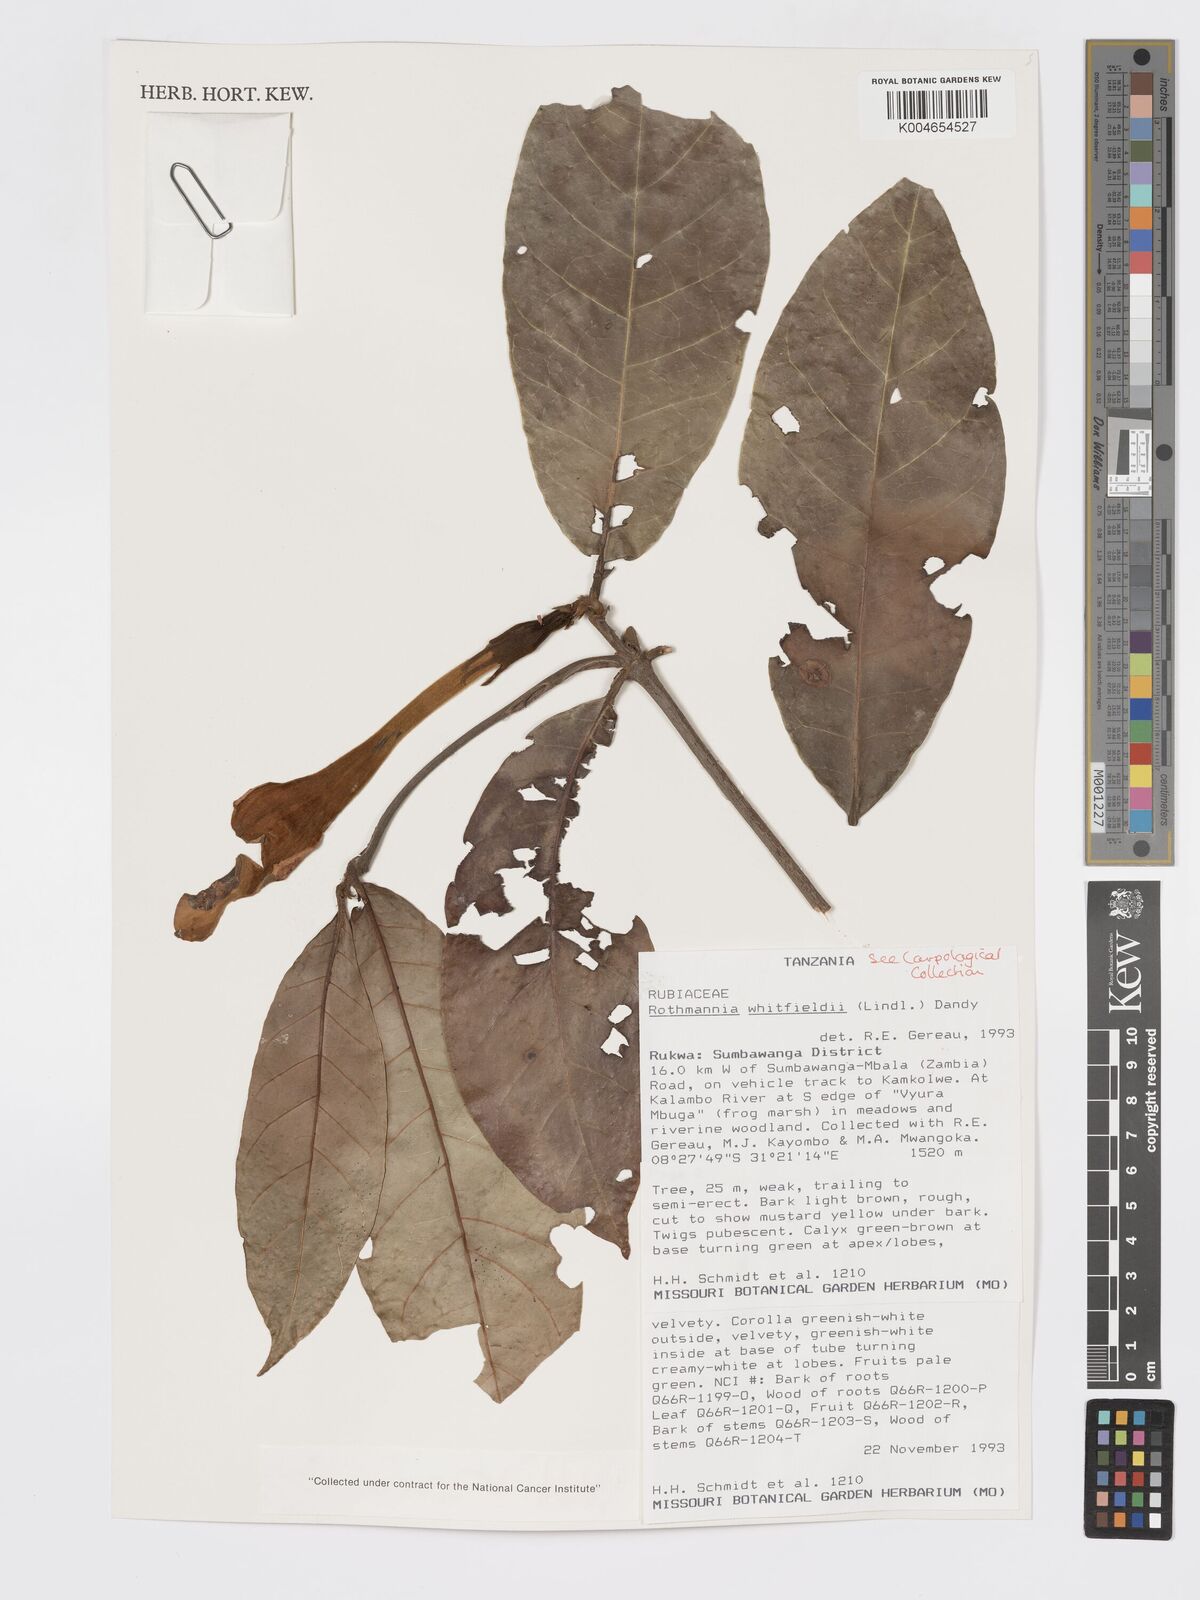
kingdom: Plantae
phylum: Tracheophyta
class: Magnoliopsida
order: Gentianales
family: Rubiaceae
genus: Rothmannia
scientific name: Rothmannia whitfieldii
